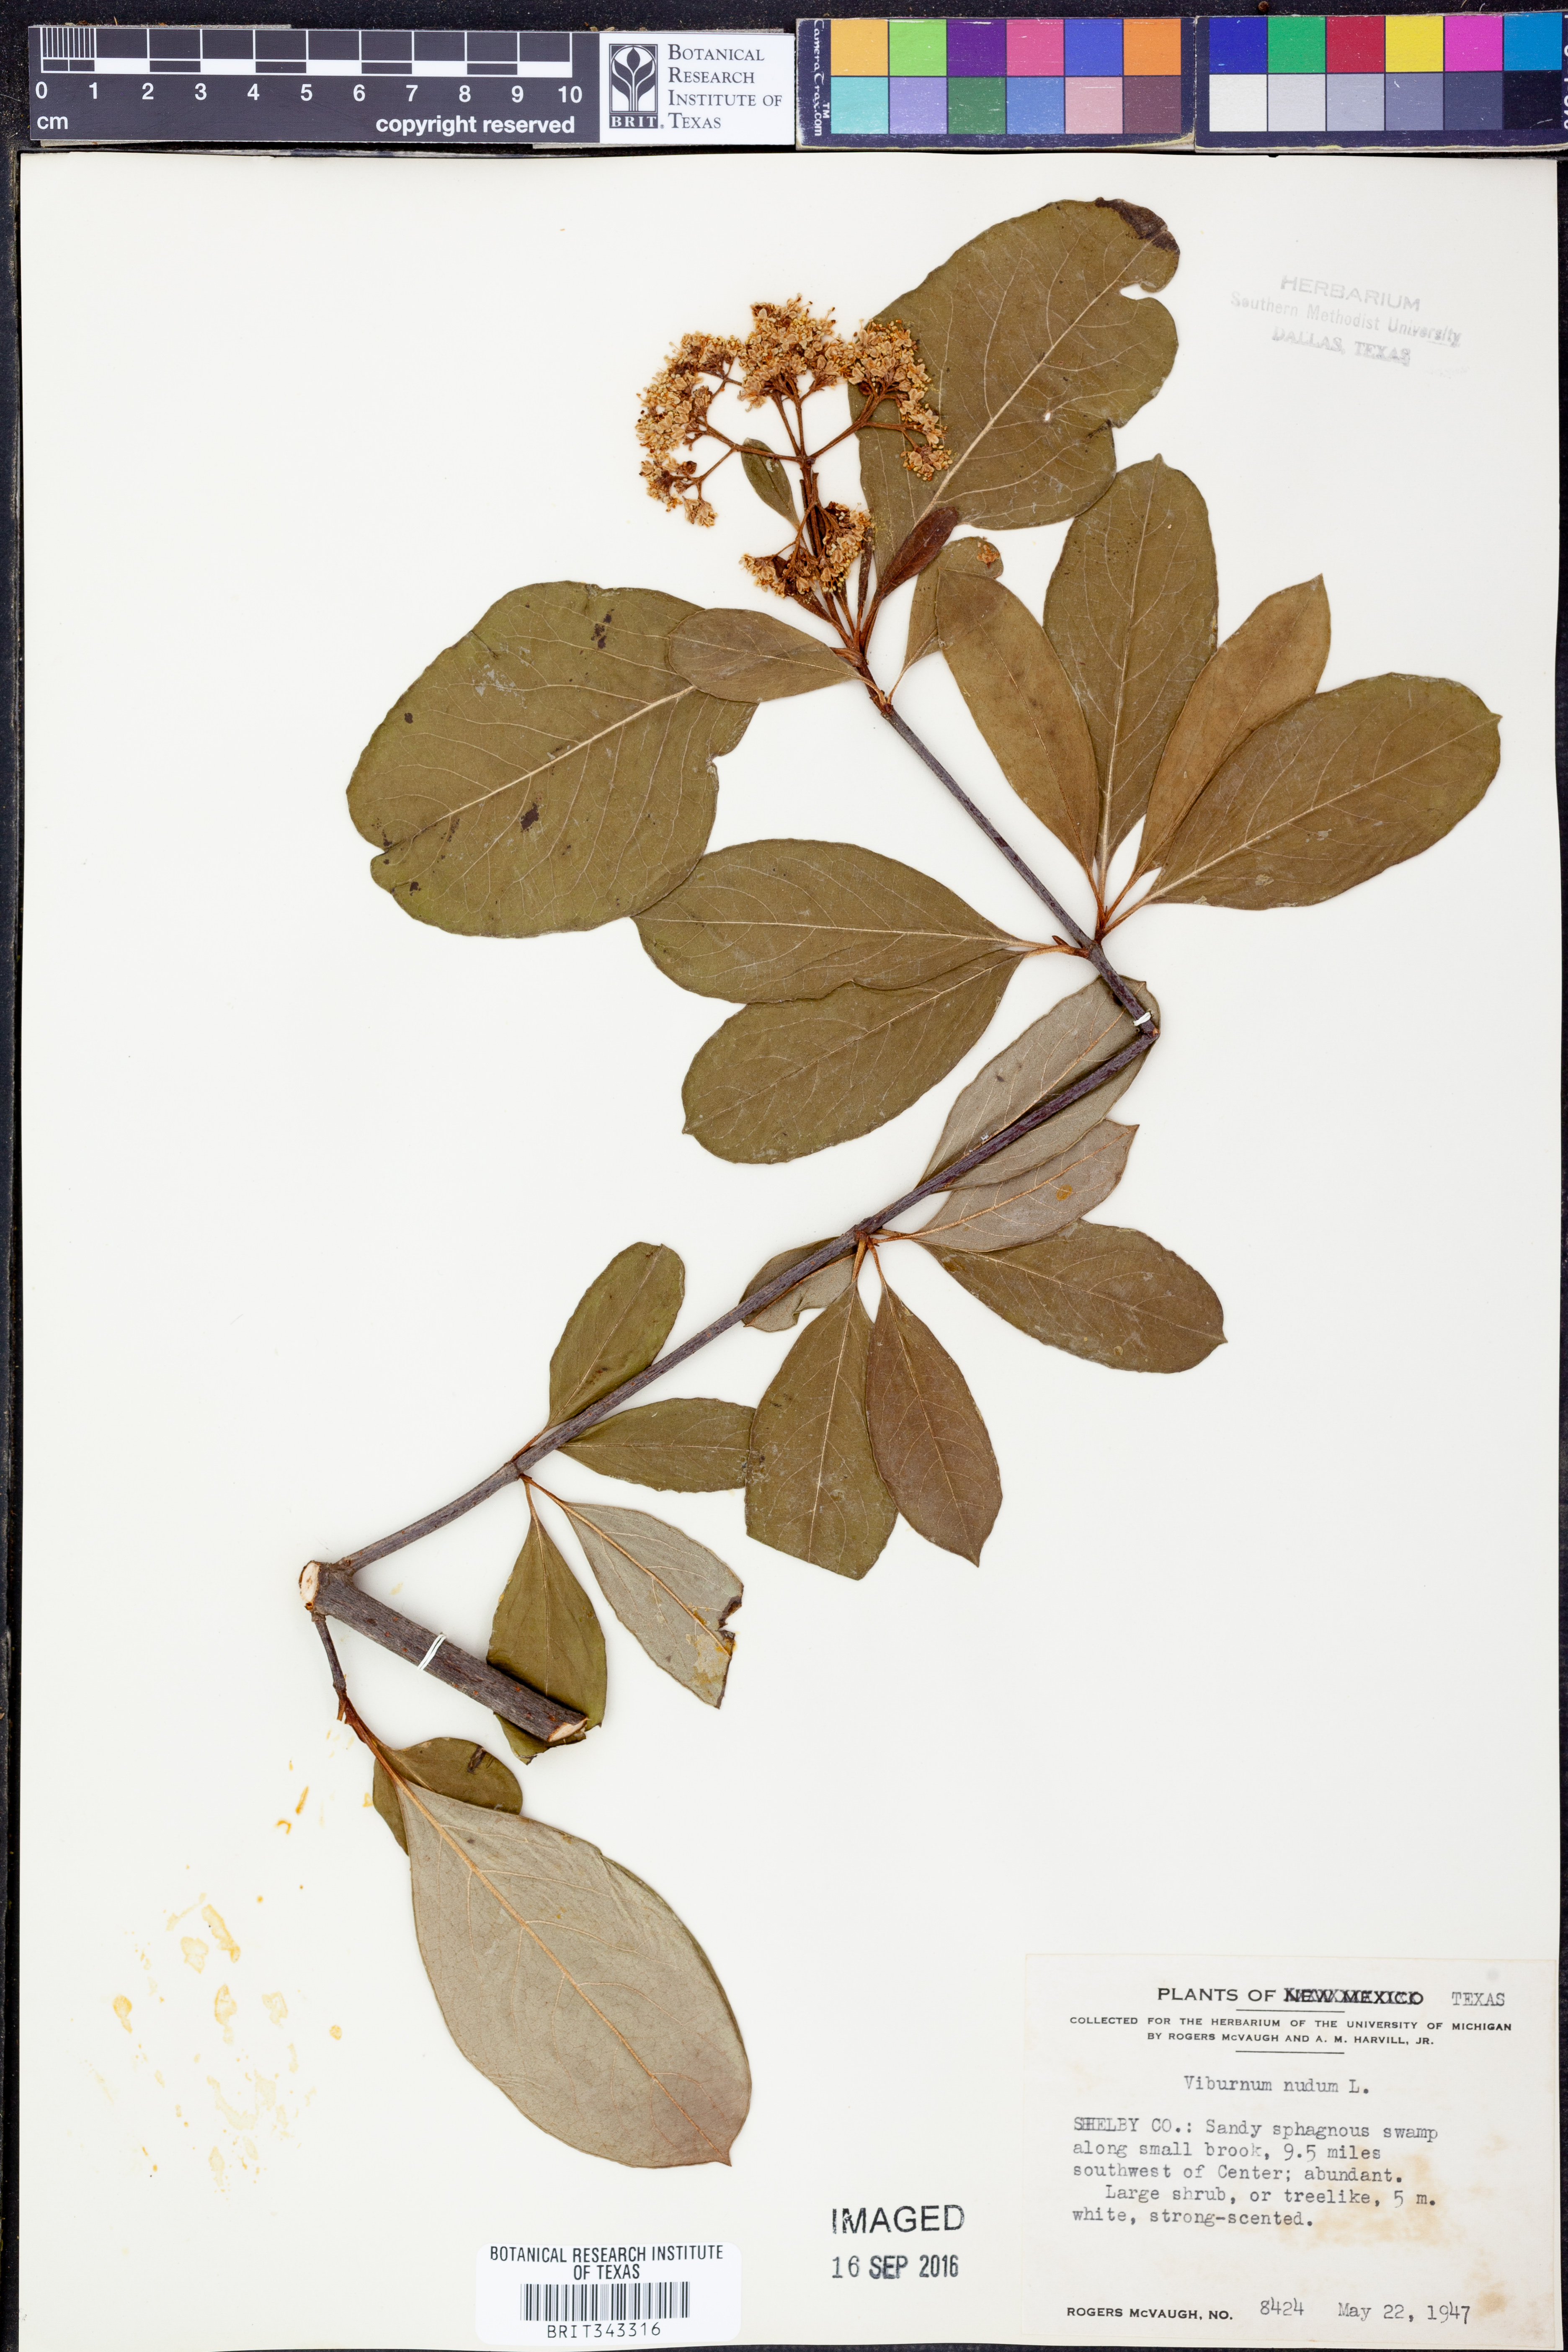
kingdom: Plantae
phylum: Tracheophyta
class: Magnoliopsida
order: Dipsacales
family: Viburnaceae
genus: Viburnum
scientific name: Viburnum nudum
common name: Possum haw
